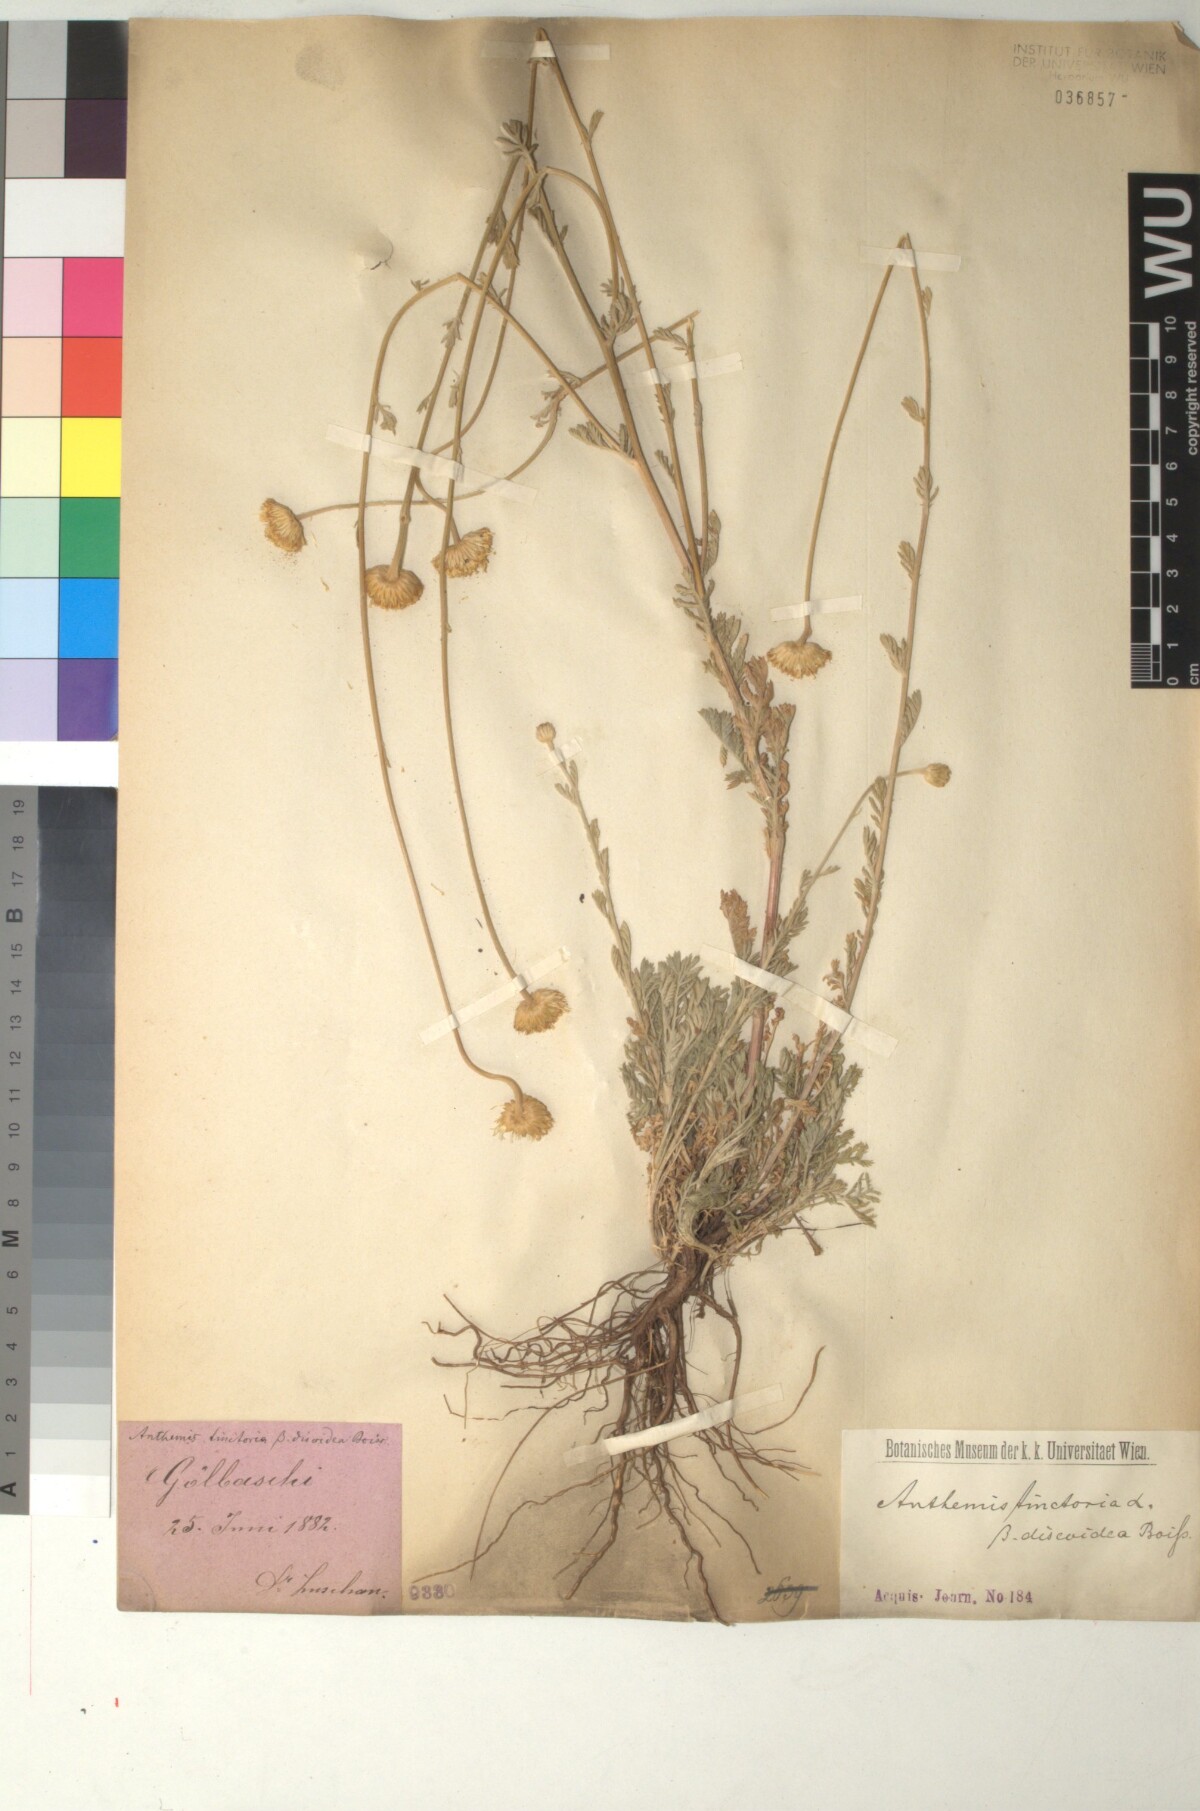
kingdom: Plantae
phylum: Tracheophyta
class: Magnoliopsida
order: Asterales
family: Asteraceae
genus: Cota
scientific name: Cota tinctoria
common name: Golden chamomile
